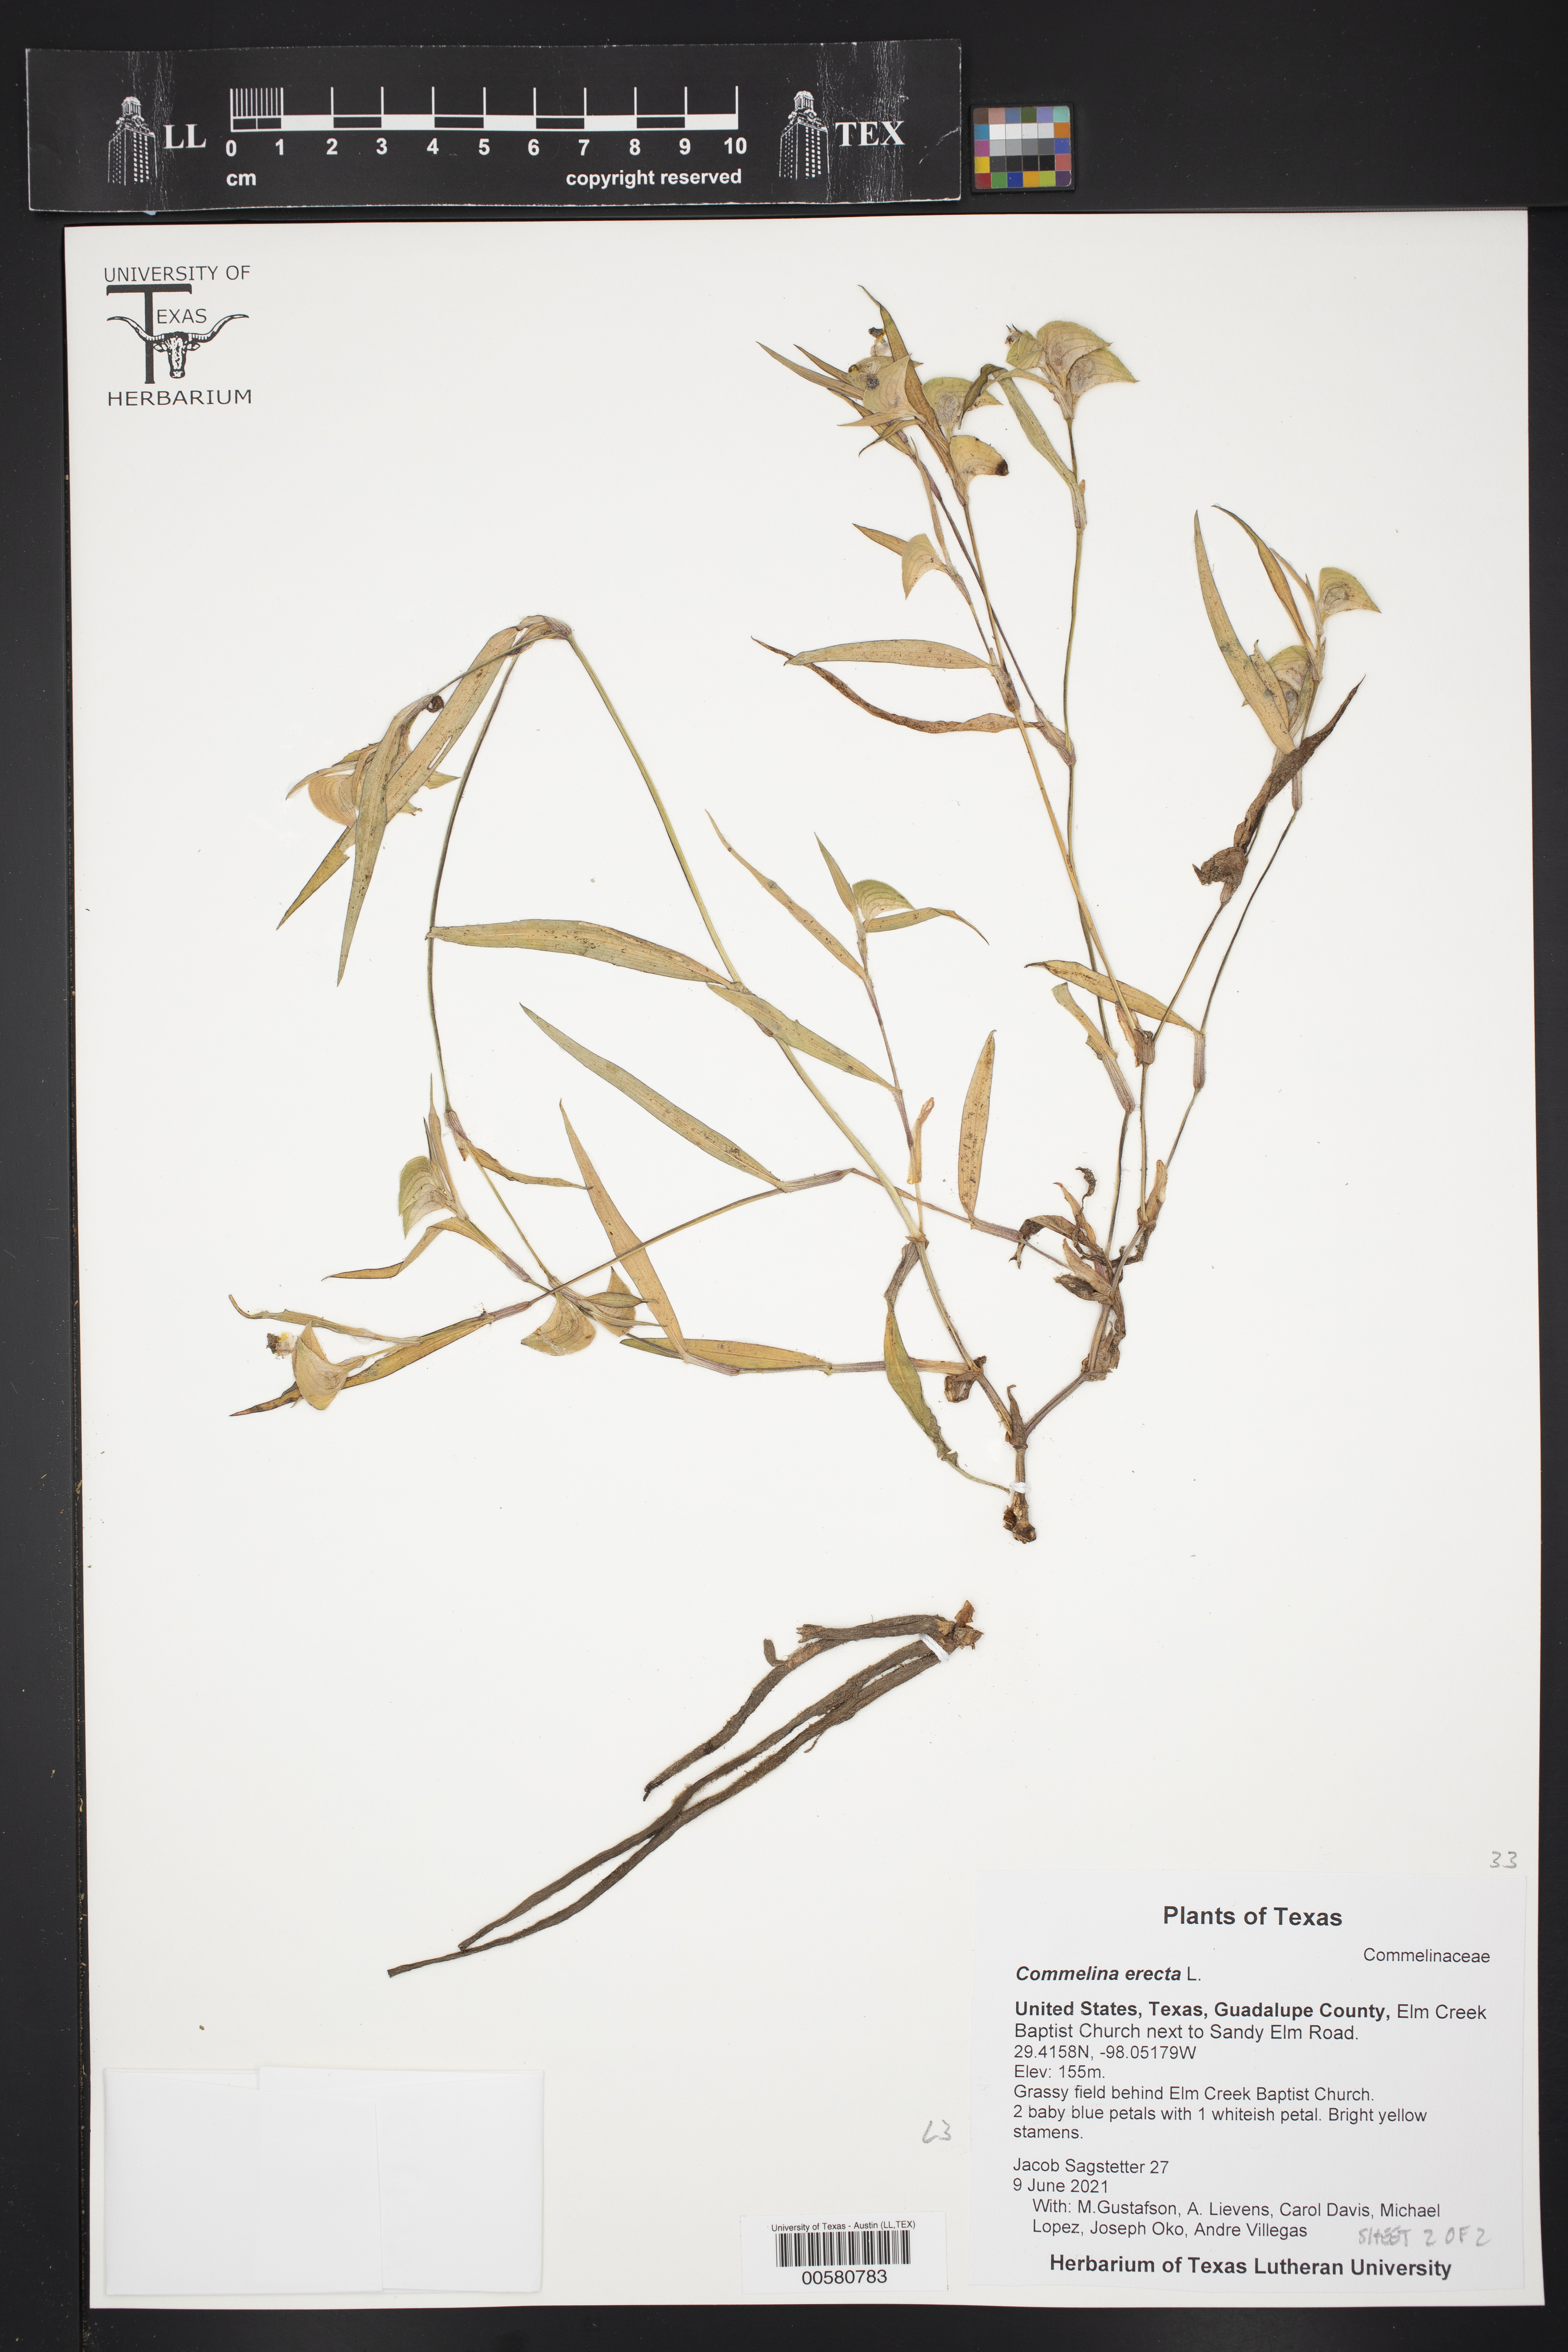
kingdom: Plantae
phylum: Tracheophyta
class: Liliopsida
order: Commelinales
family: Commelinaceae
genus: Commelina
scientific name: Commelina erecta
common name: Blousel blommetjie
